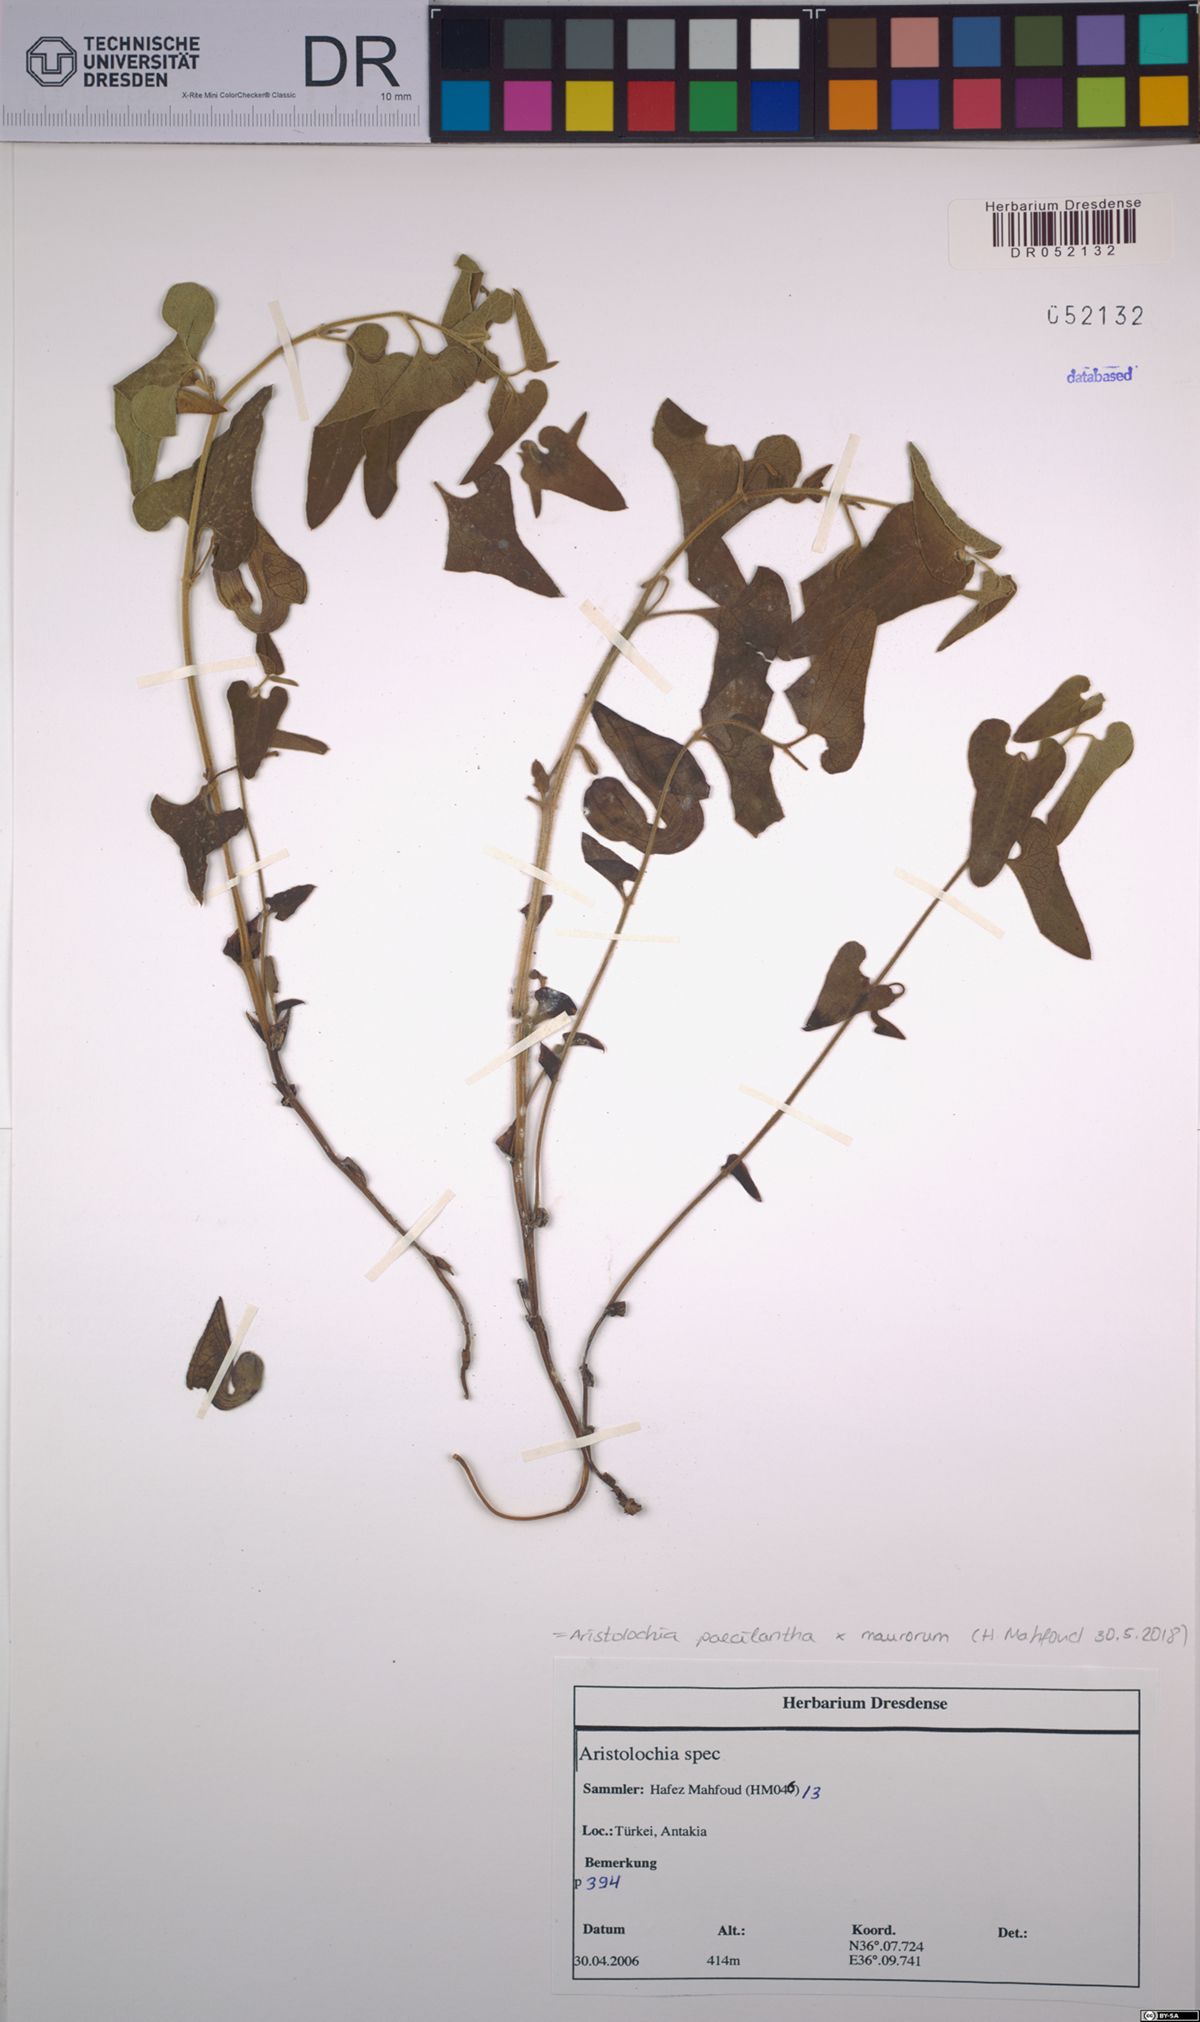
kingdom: Plantae
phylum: Tracheophyta
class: Magnoliopsida
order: Piperales
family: Aristolochiaceae
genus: Aristolochia
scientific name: Aristolochia paecilantha
